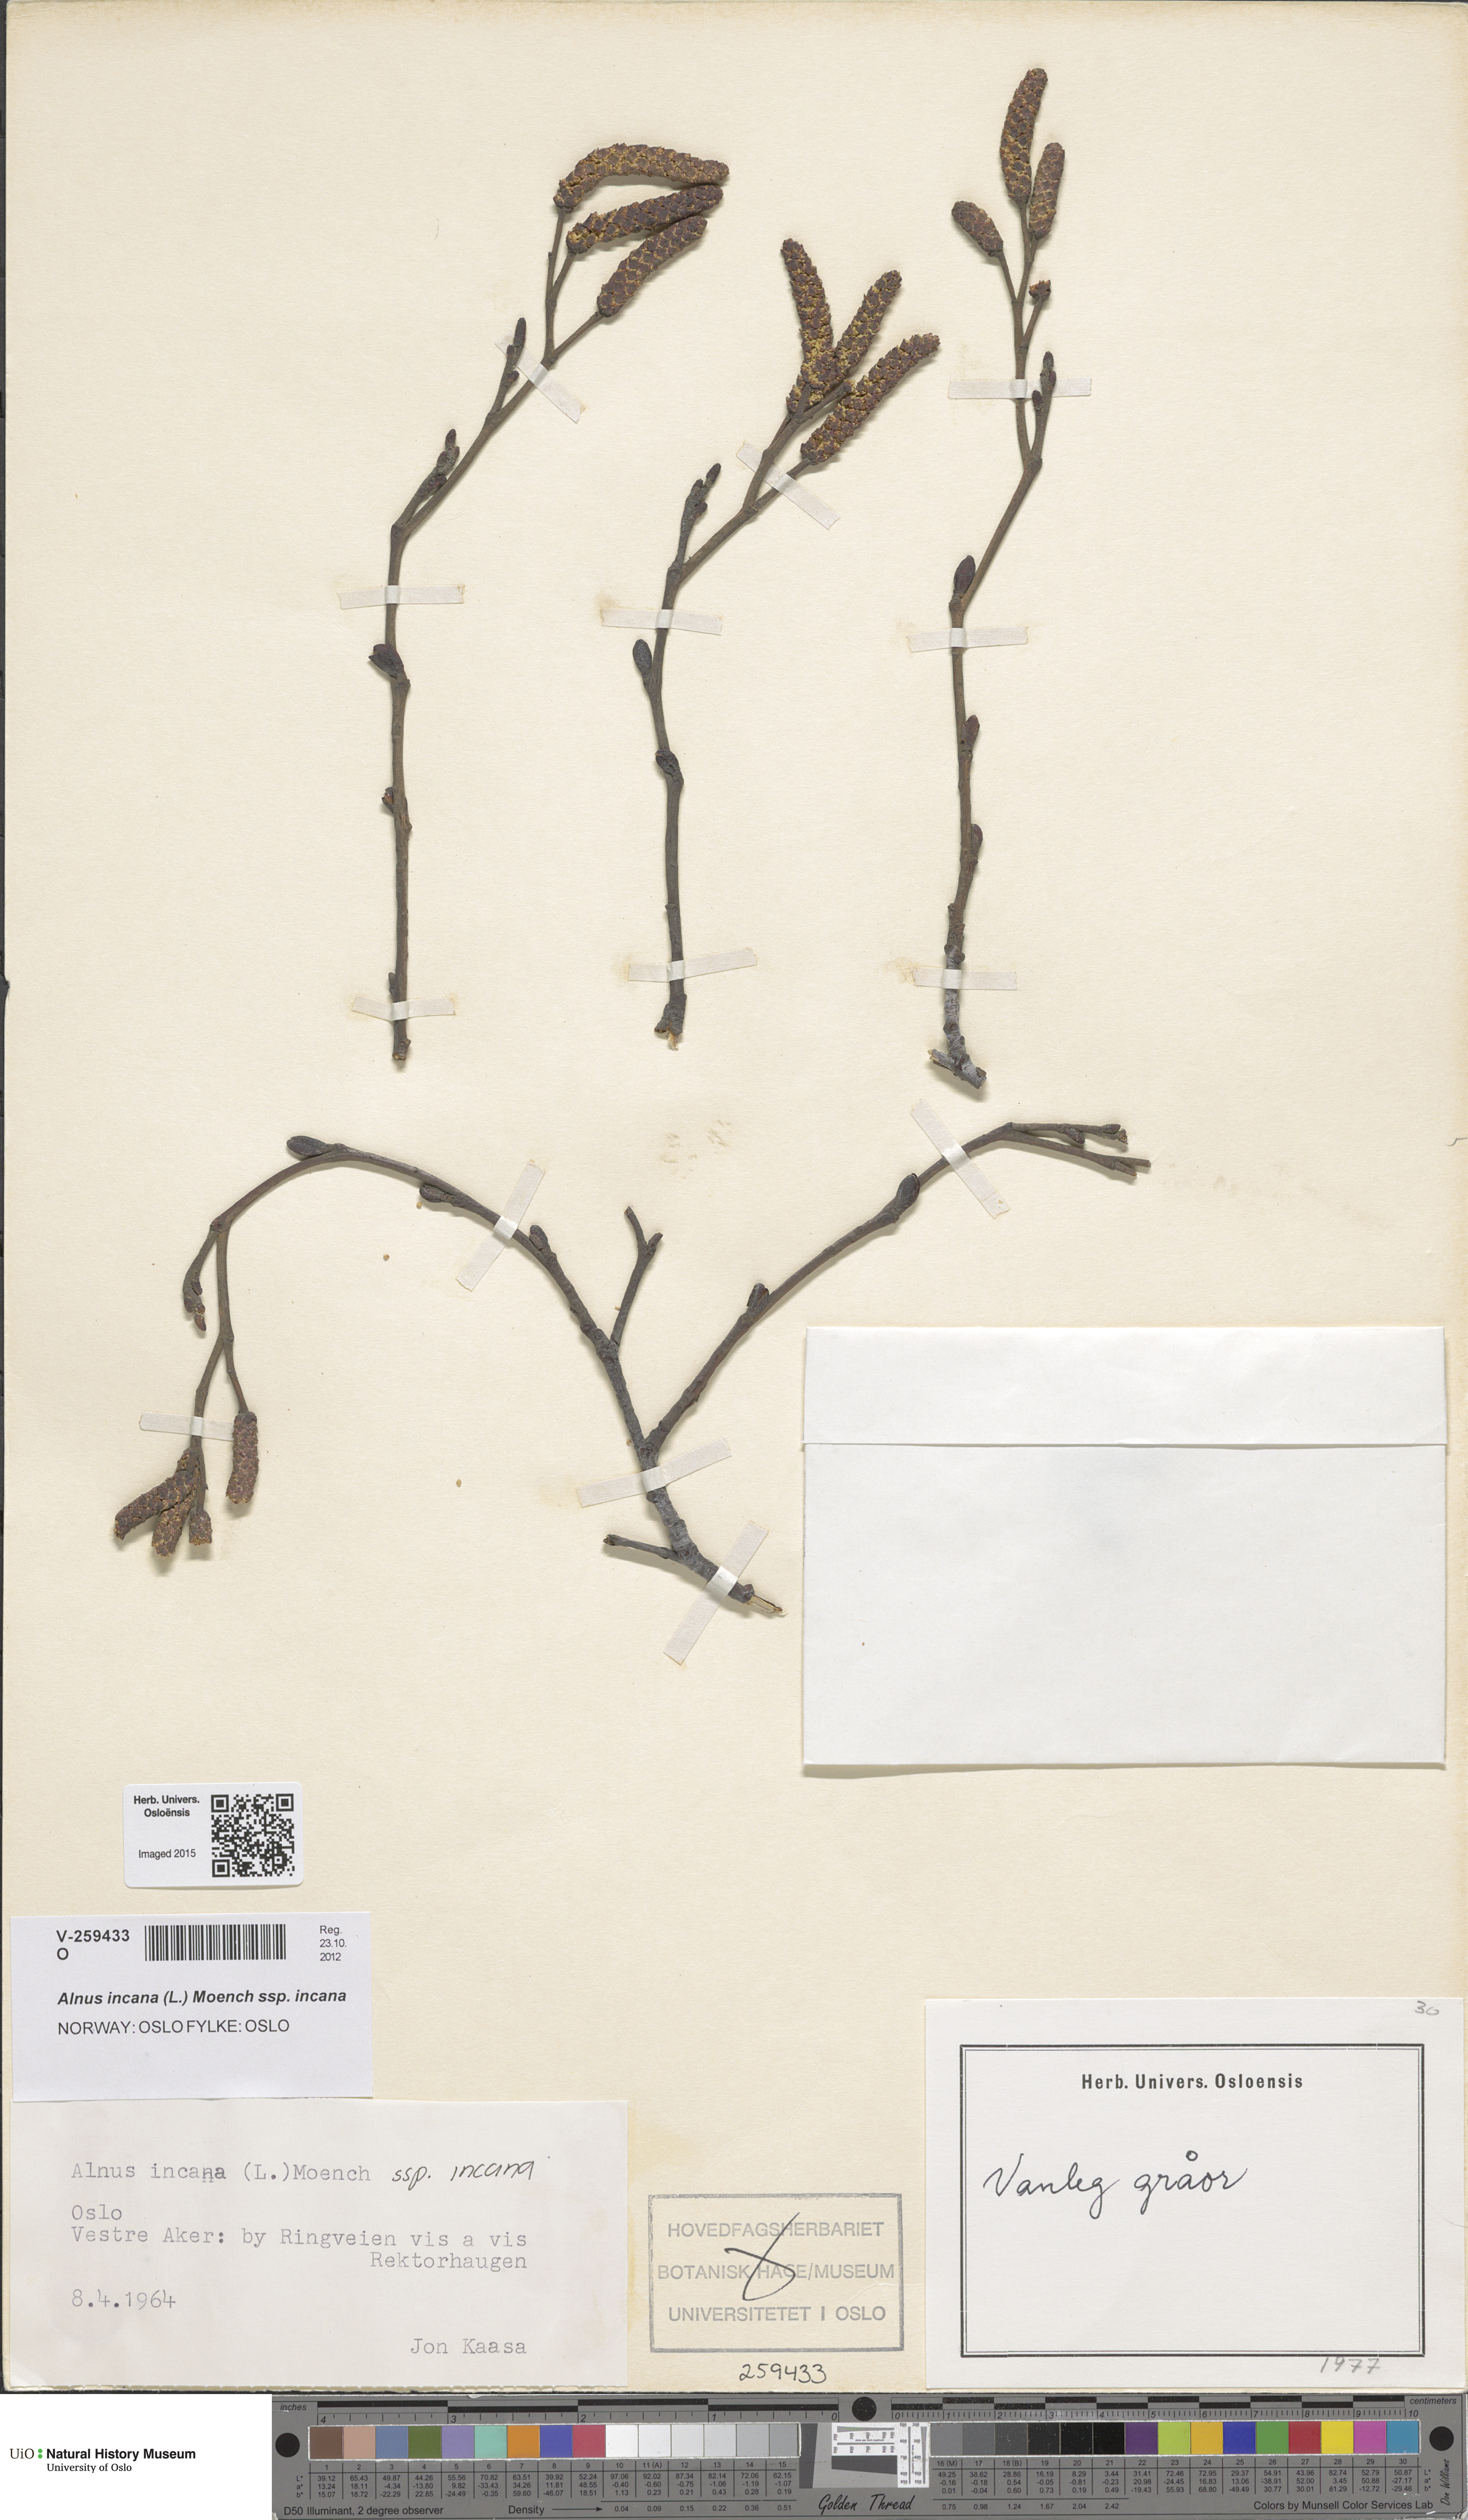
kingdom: Plantae
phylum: Tracheophyta
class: Magnoliopsida
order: Fagales
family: Betulaceae
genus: Alnus
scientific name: Alnus incana
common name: Grey alder
